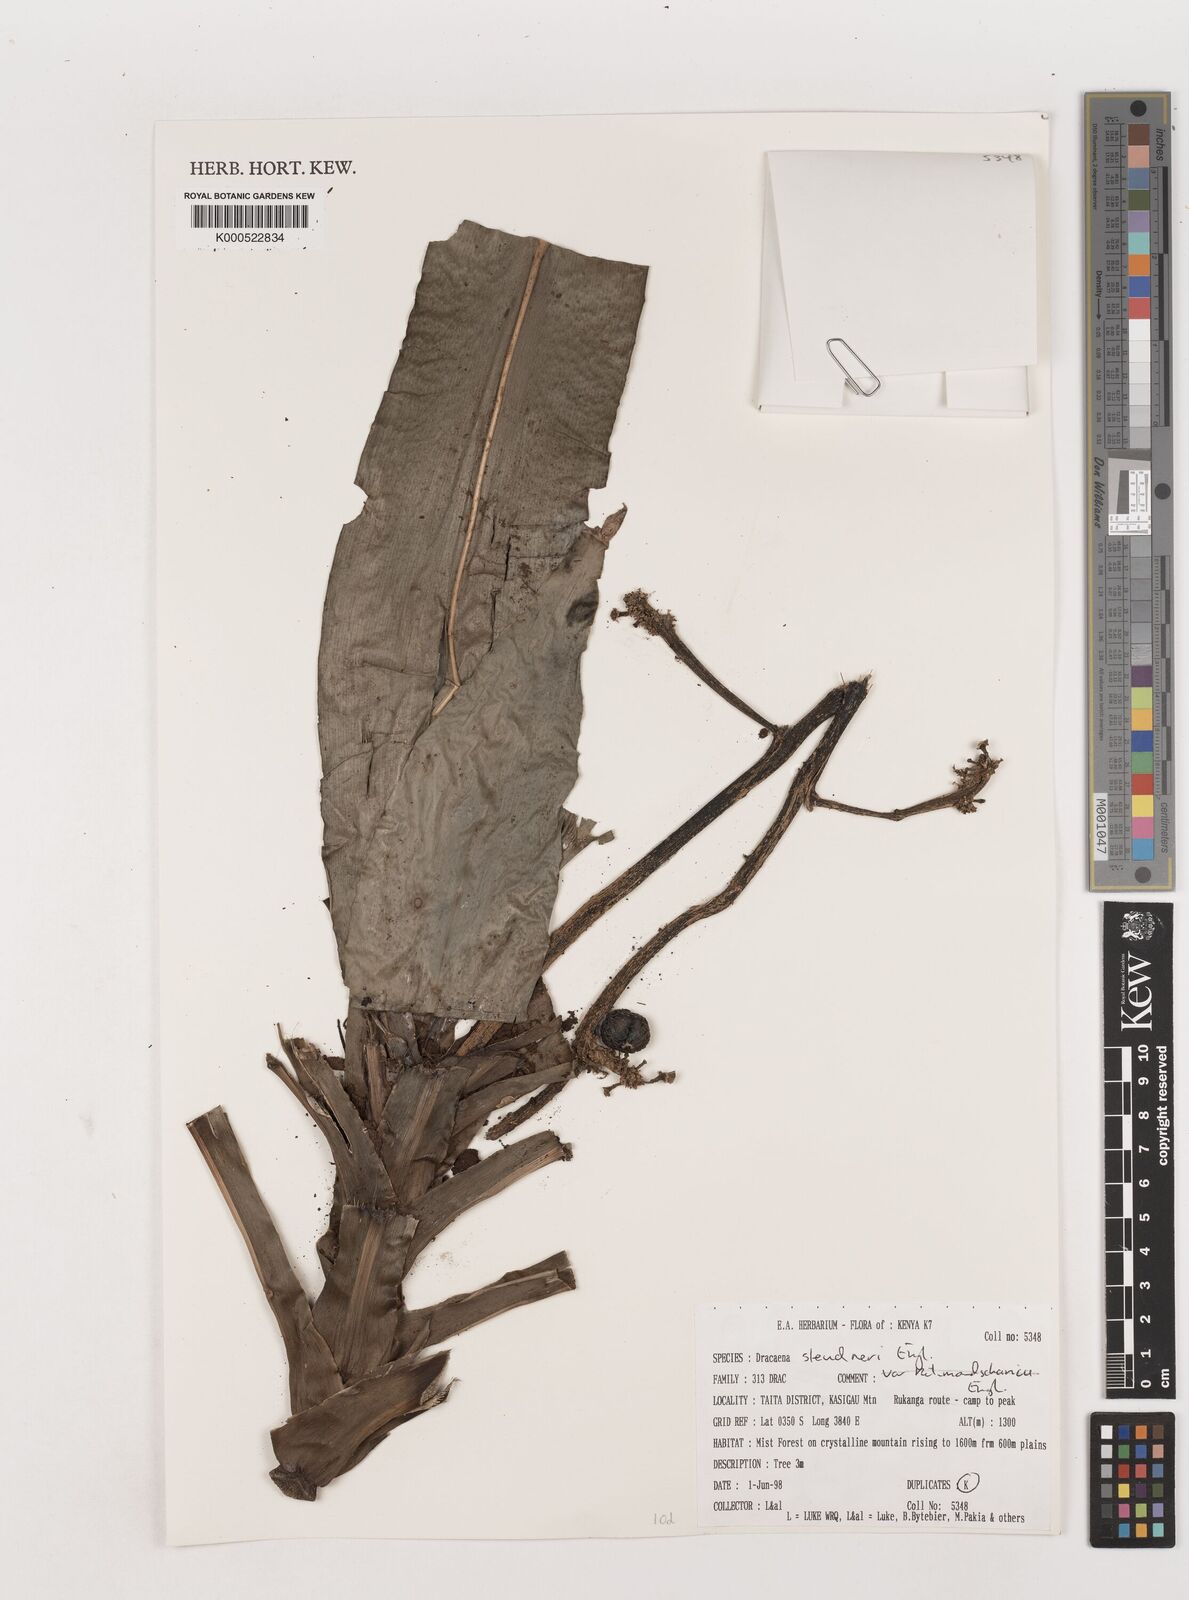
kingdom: Plantae
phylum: Tracheophyta
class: Liliopsida
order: Asparagales
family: Asparagaceae
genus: Dracaena
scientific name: Dracaena steudneri
